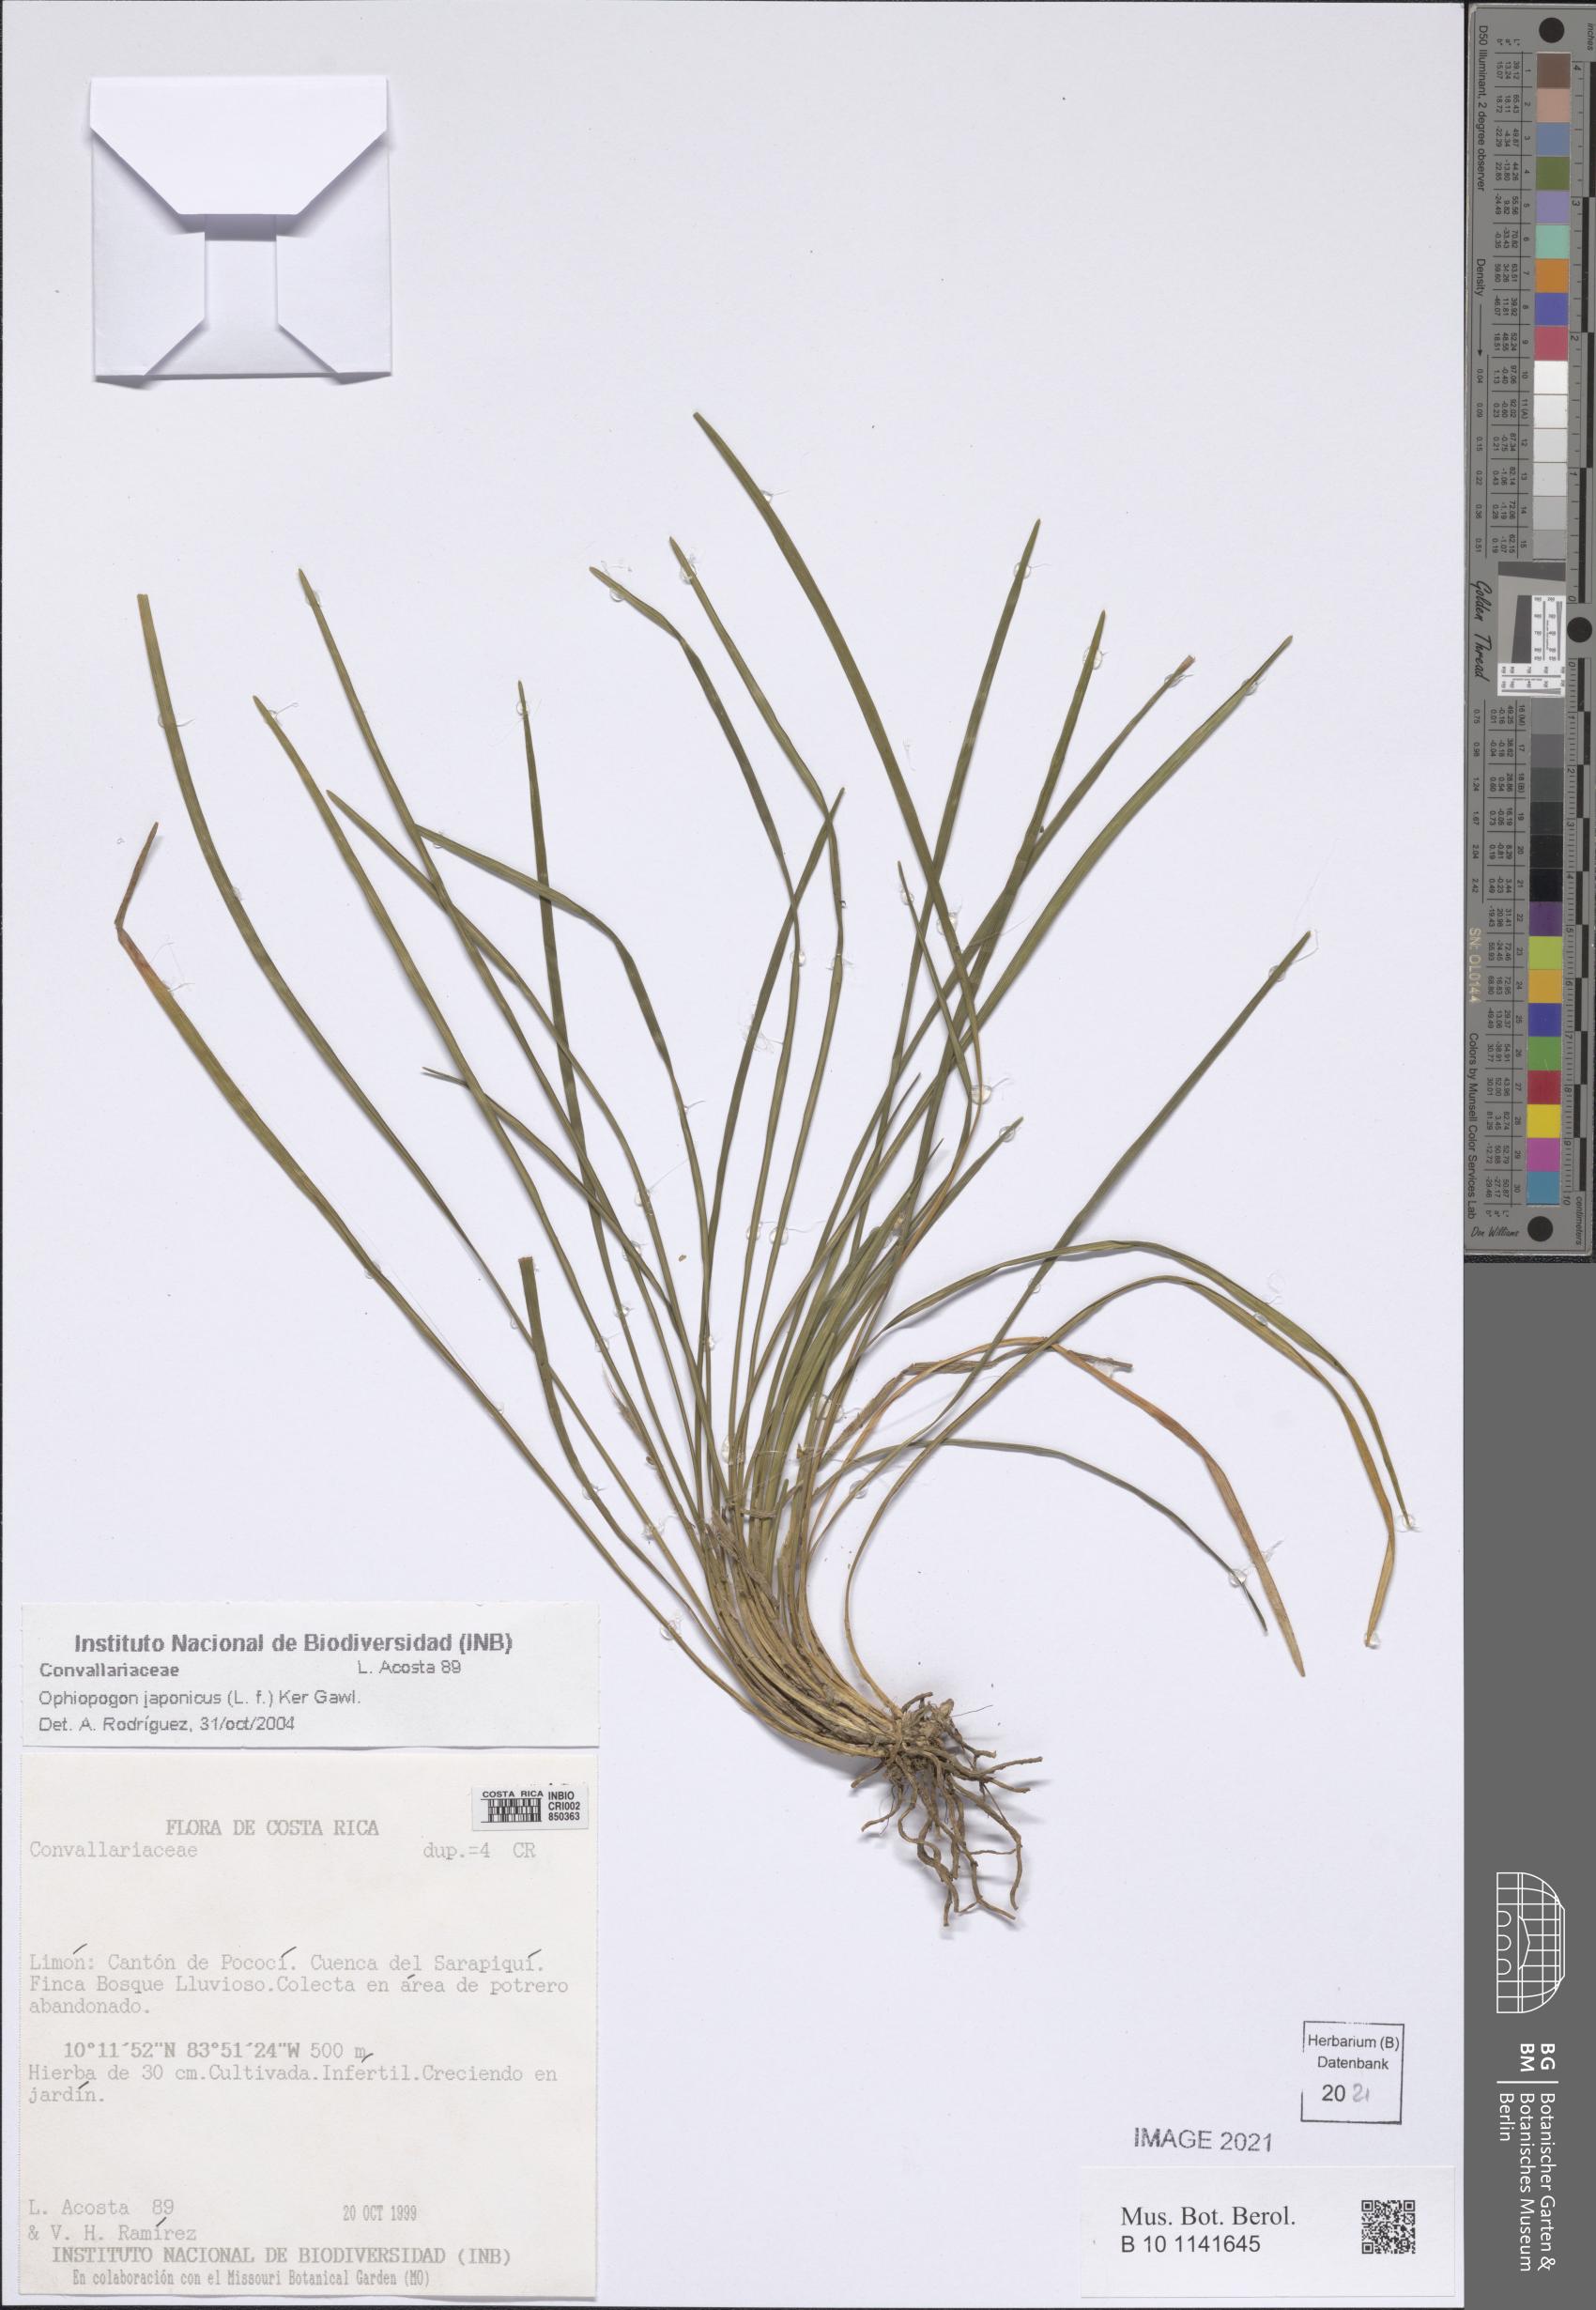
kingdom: Plantae
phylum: Tracheophyta
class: Liliopsida
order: Asparagales
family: Asparagaceae
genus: Ophiopogon
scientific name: Ophiopogon japonicus
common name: Dwarf lilyturf
